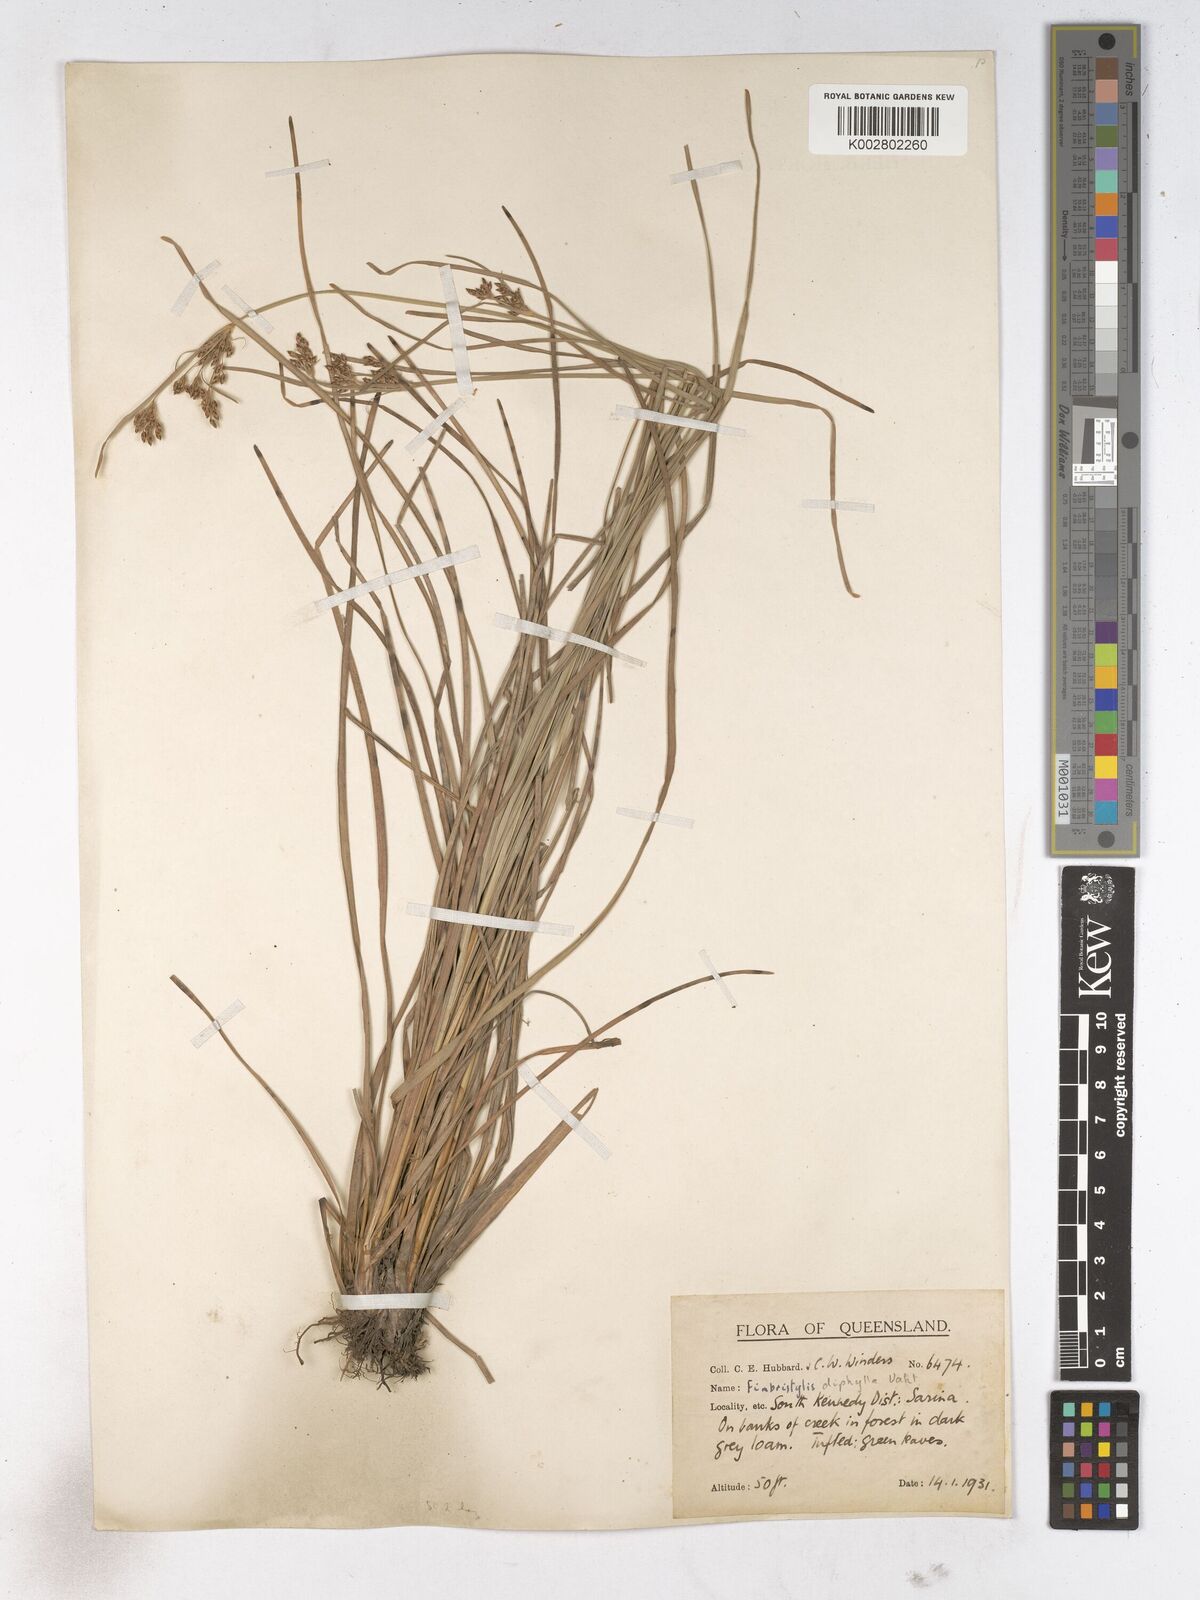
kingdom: Plantae
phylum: Tracheophyta
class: Liliopsida
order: Poales
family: Cyperaceae
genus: Fimbristylis
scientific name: Fimbristylis dichotoma
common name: Forked fimbry
